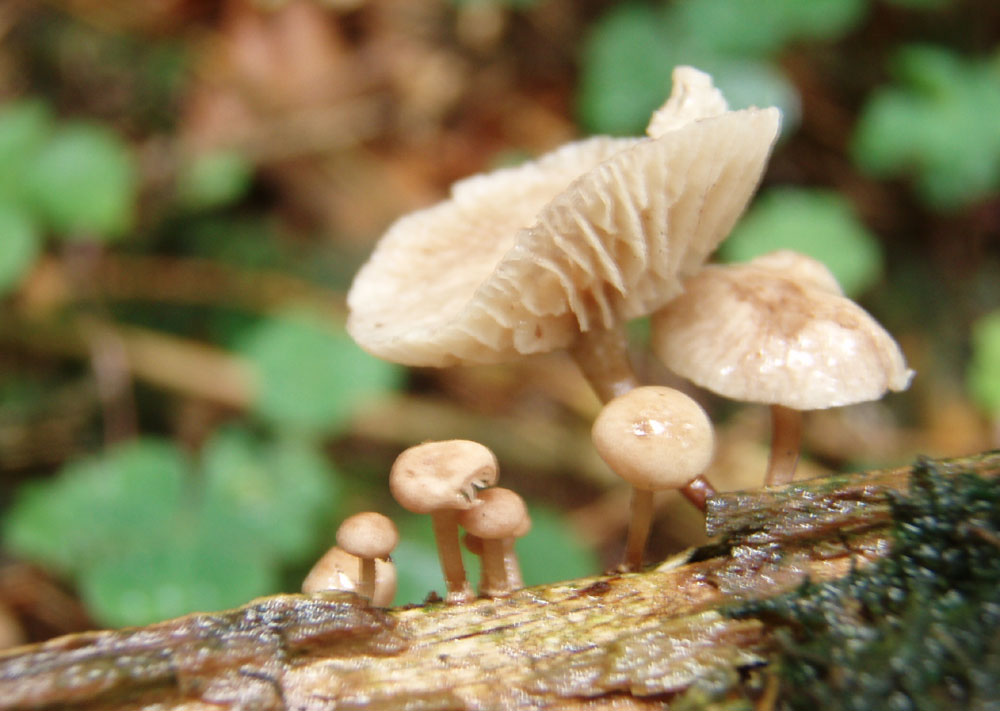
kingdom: Fungi
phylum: Basidiomycota
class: Agaricomycetes
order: Agaricales
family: Omphalotaceae
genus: Collybiopsis
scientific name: Collybiopsis ramealis
